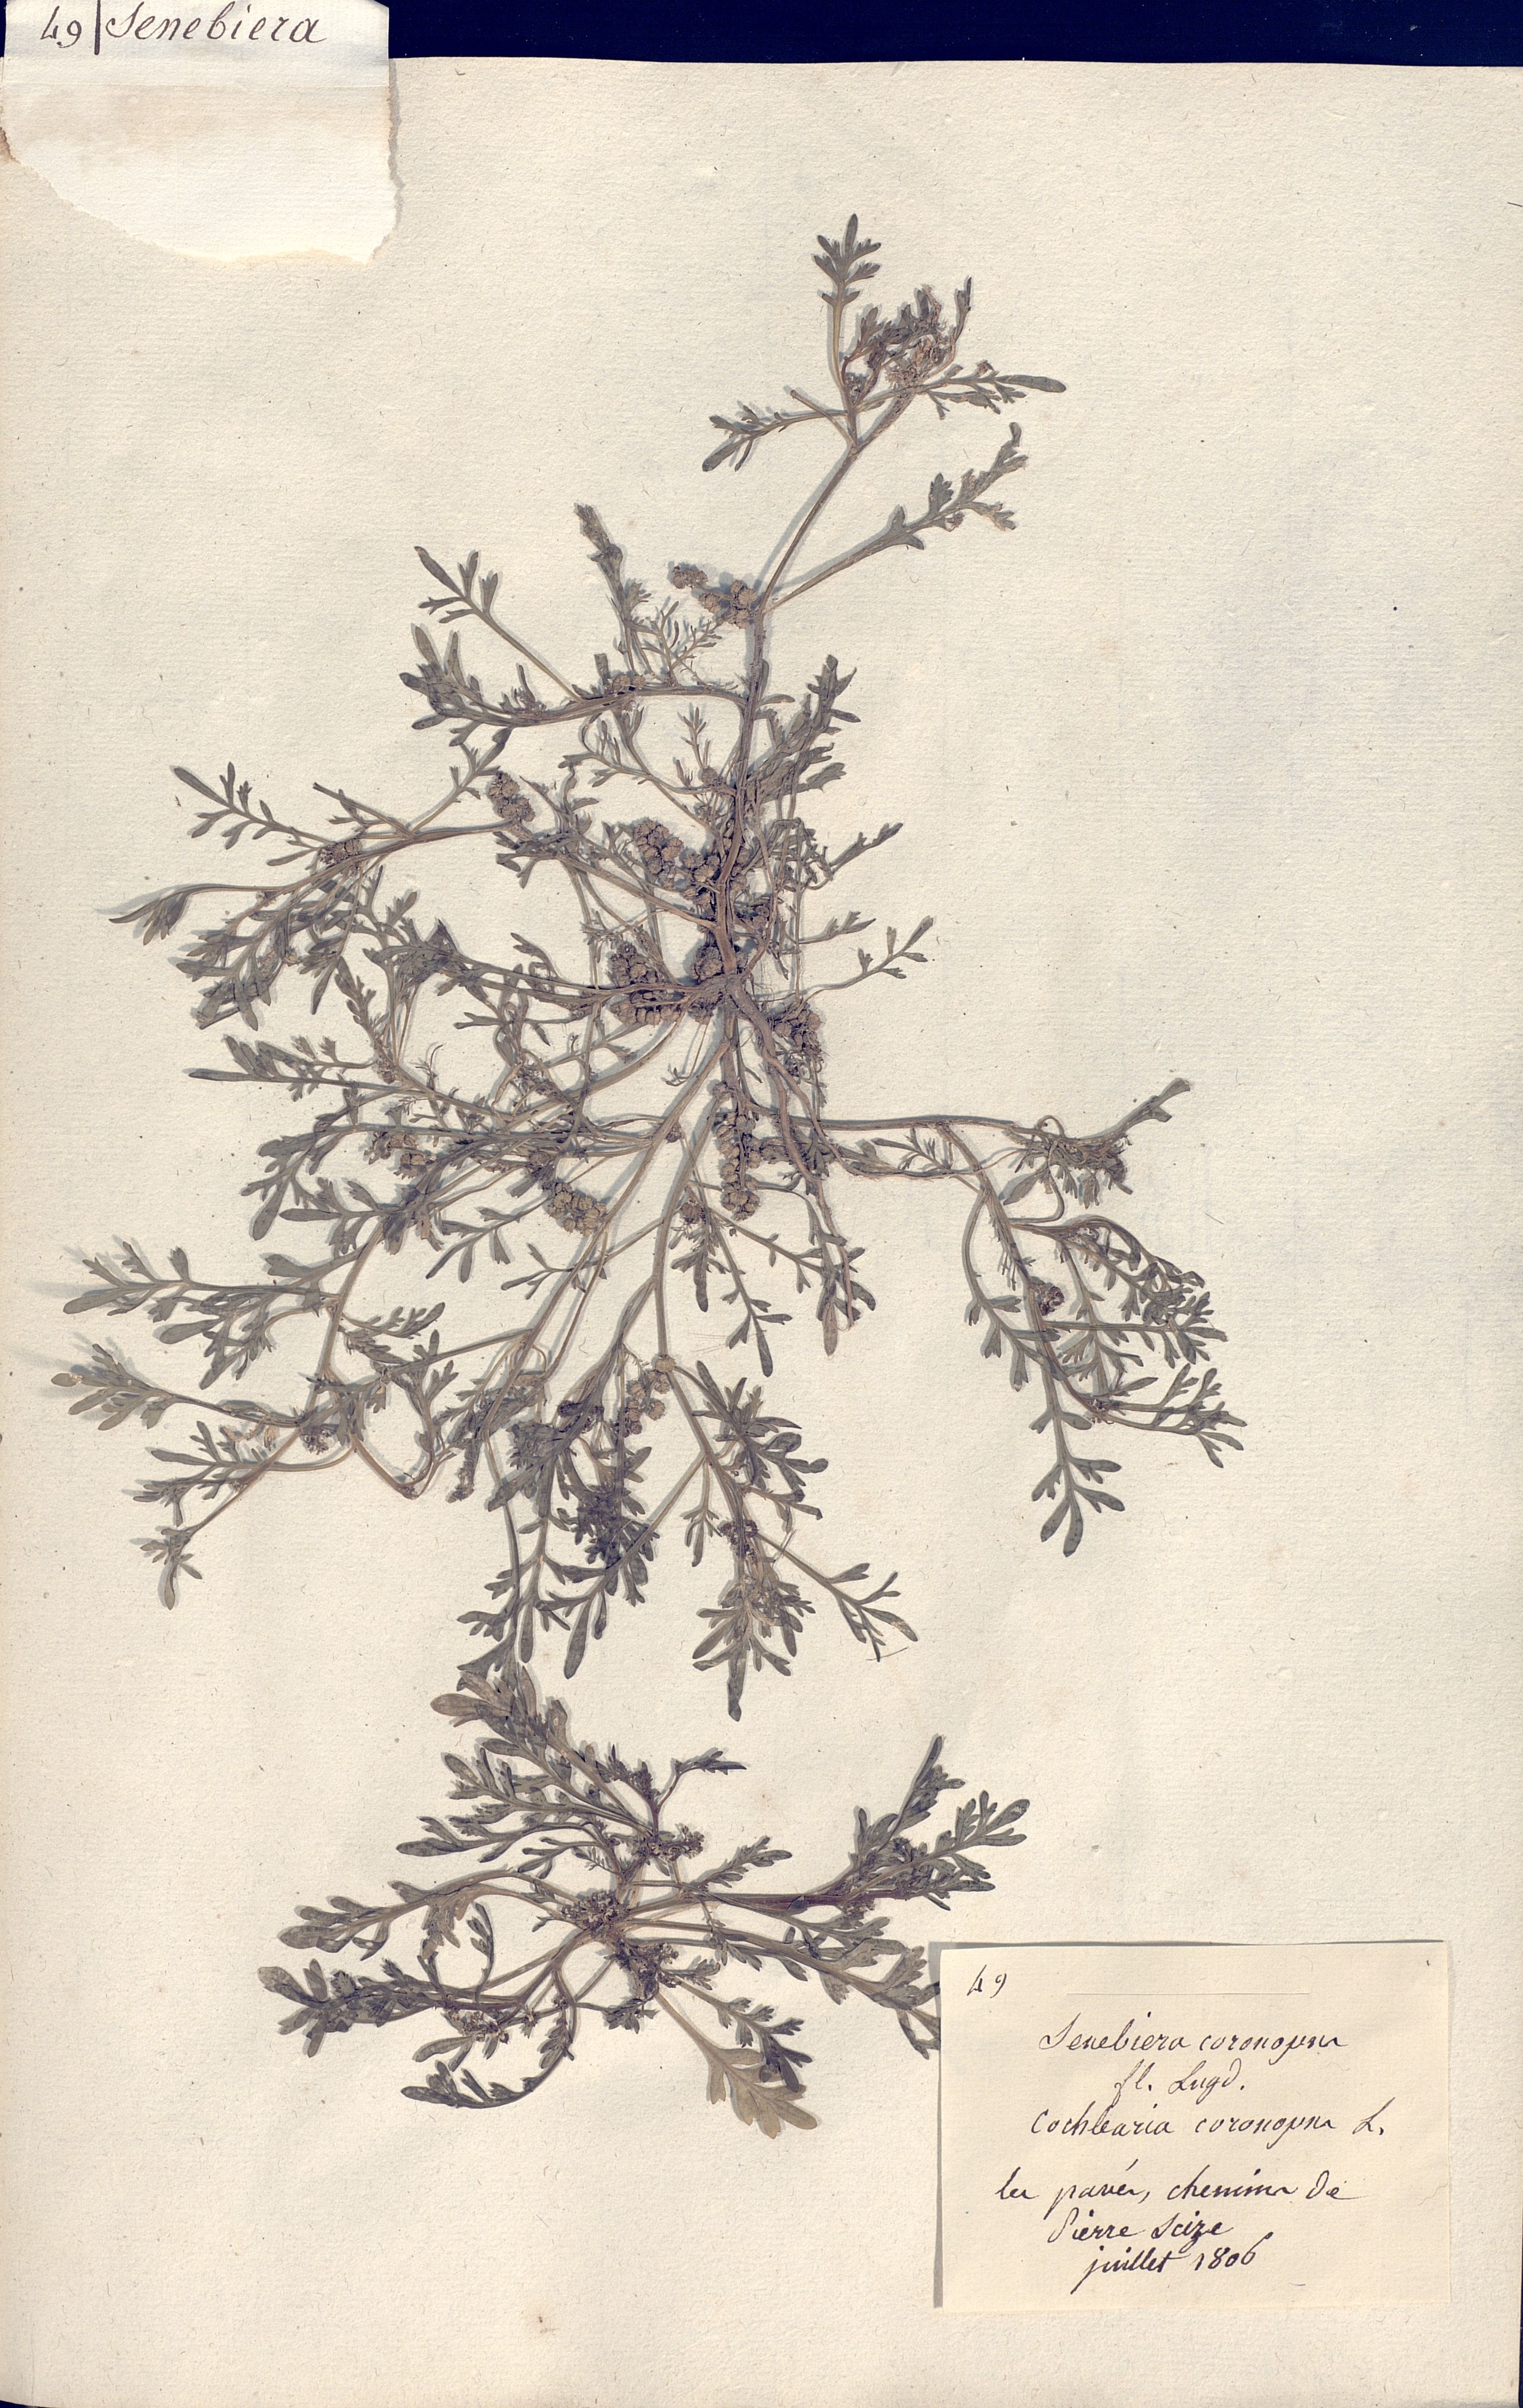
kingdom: Plantae
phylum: Tracheophyta
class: Magnoliopsida
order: Brassicales
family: Brassicaceae
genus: Lepidium
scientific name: Lepidium coronopus
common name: Greater swinecress
